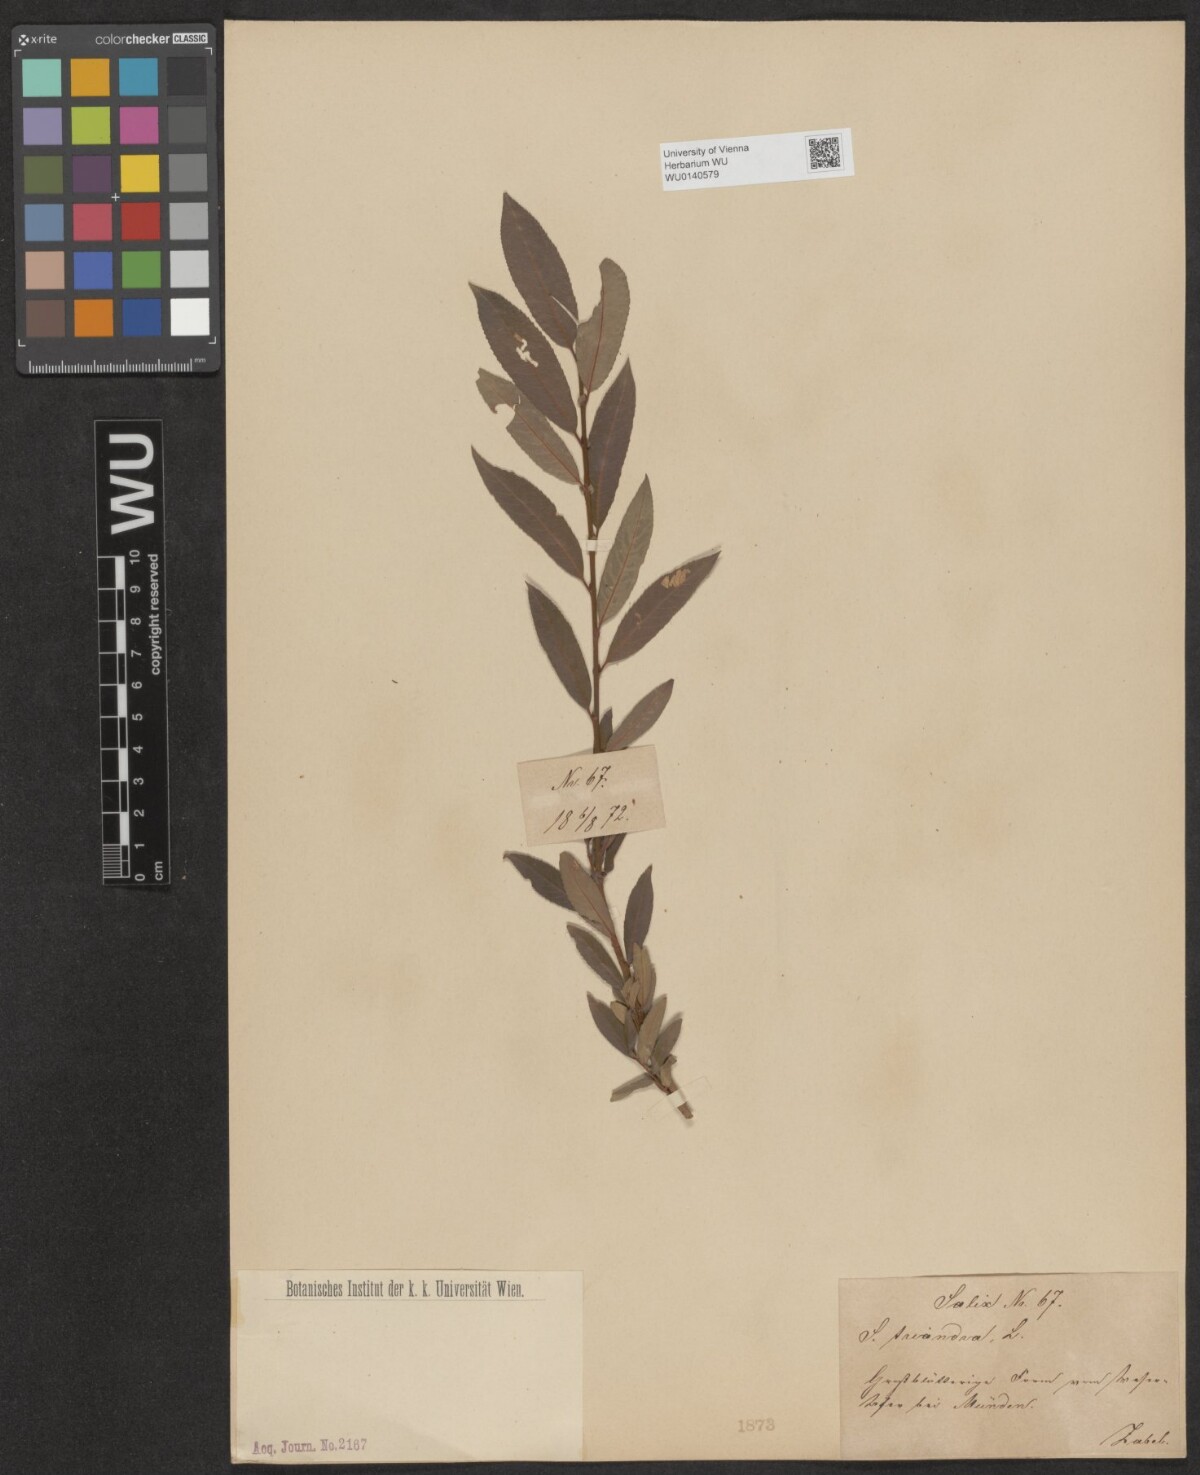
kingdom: Plantae
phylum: Tracheophyta
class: Magnoliopsida
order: Malpighiales
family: Salicaceae
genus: Salix
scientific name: Salix triandra
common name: Almond willow
